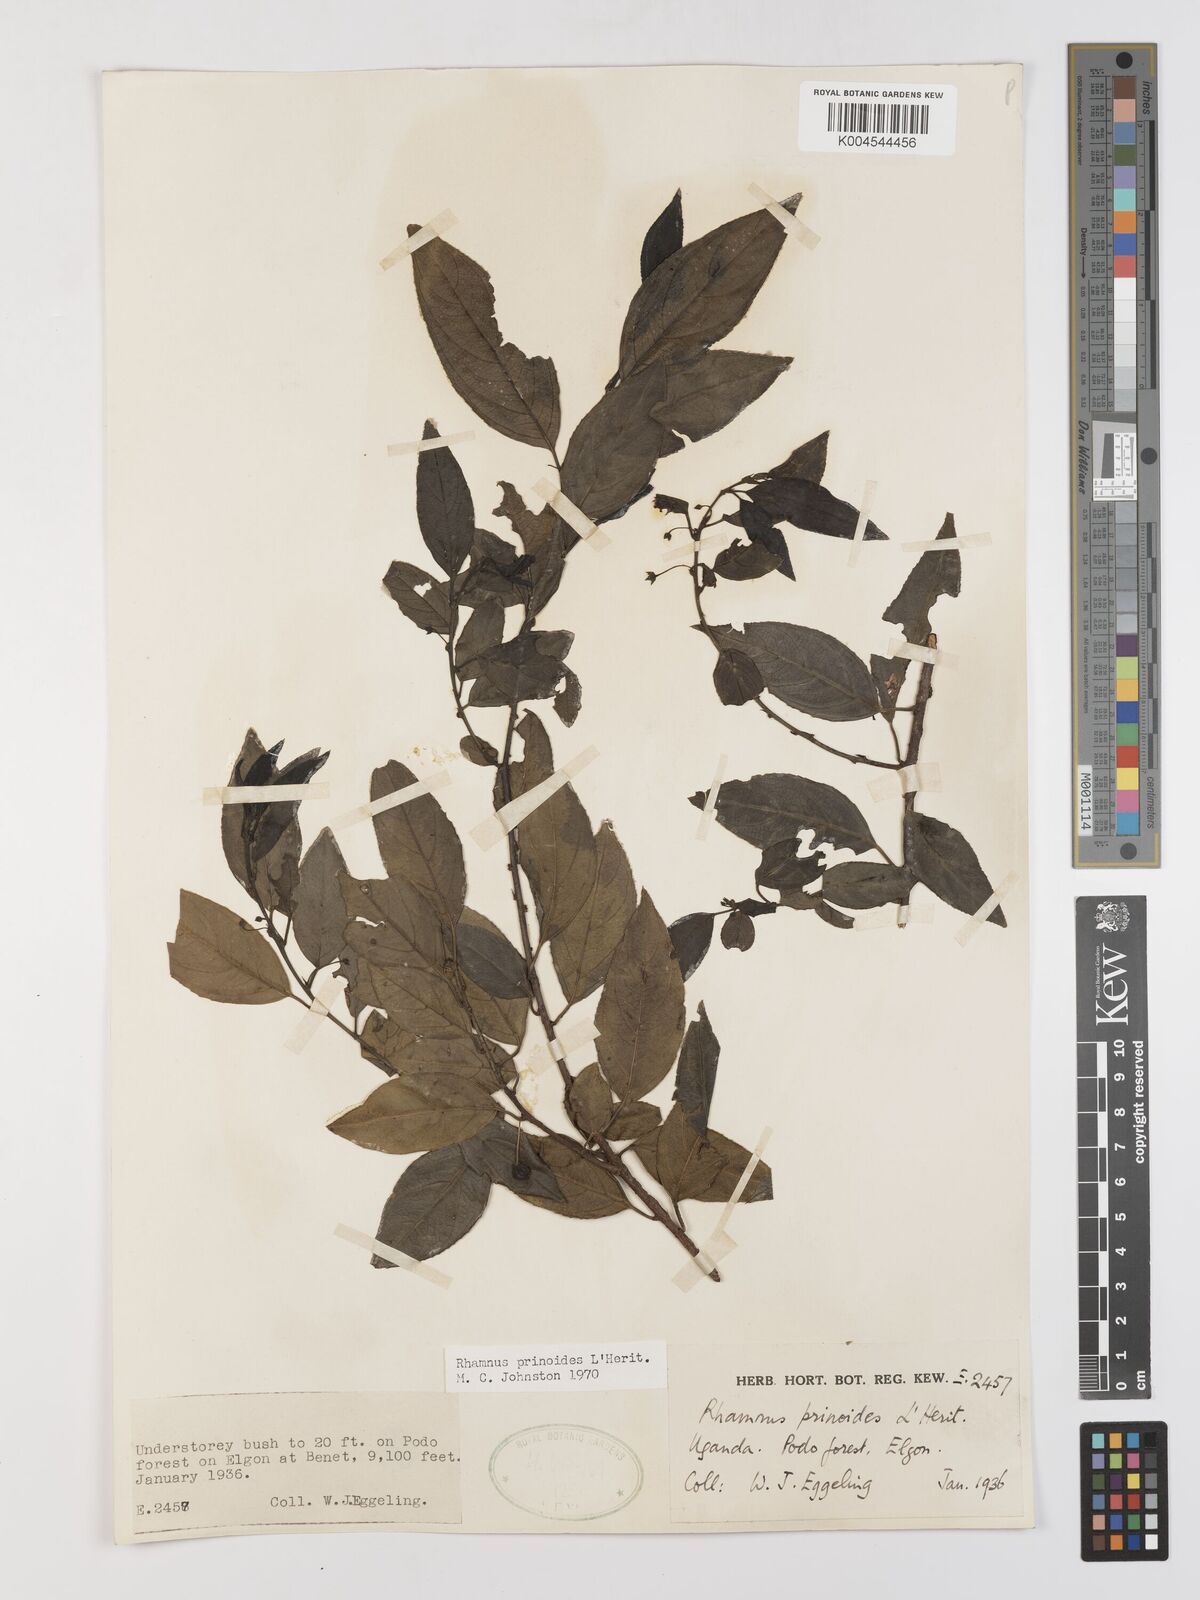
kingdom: Plantae
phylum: Tracheophyta
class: Magnoliopsida
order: Rosales
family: Rhamnaceae
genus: Rhamnus
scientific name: Rhamnus prinoides
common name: Dogwood
